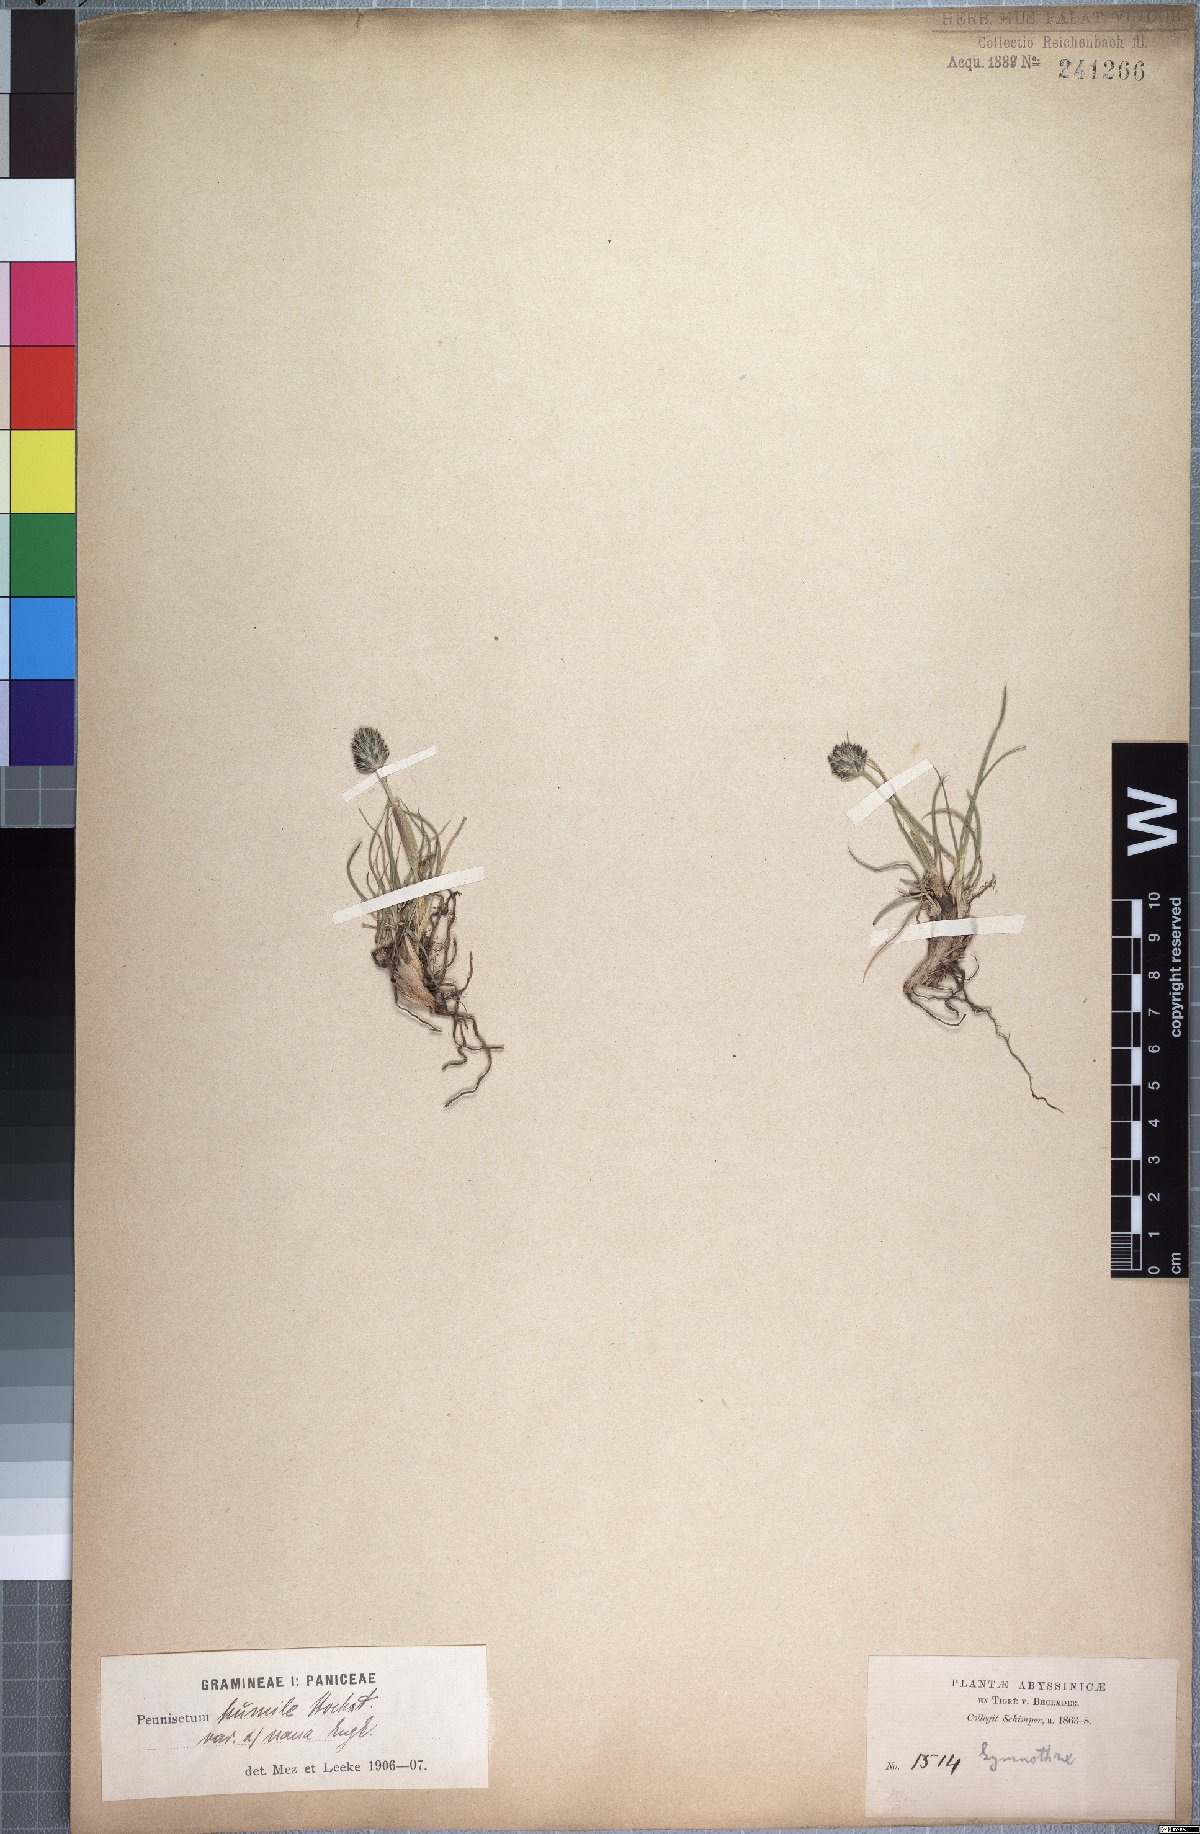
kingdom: Plantae
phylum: Tracheophyta
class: Liliopsida
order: Poales
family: Poaceae
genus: Cenchrus
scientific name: Cenchrus nanus
